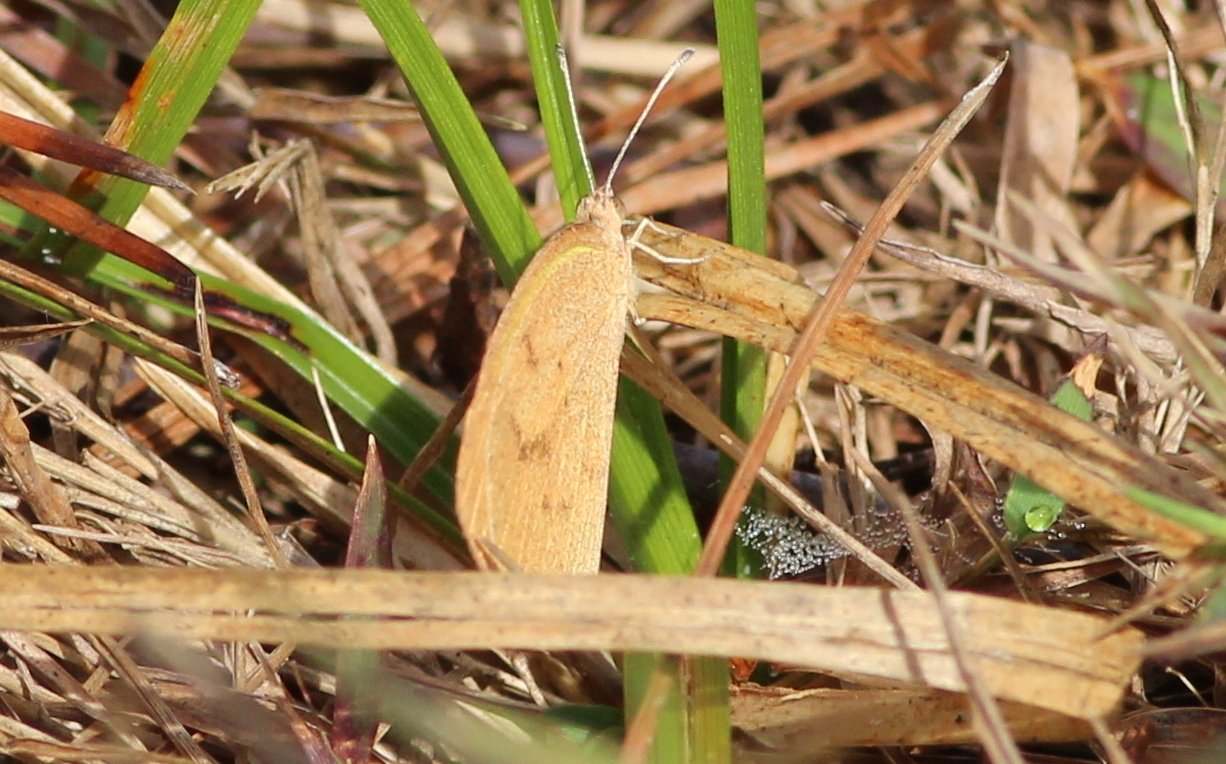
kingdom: Animalia
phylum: Arthropoda
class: Insecta
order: Lepidoptera
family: Pieridae
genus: Eurema
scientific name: Eurema daira
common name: Barred Yellow
